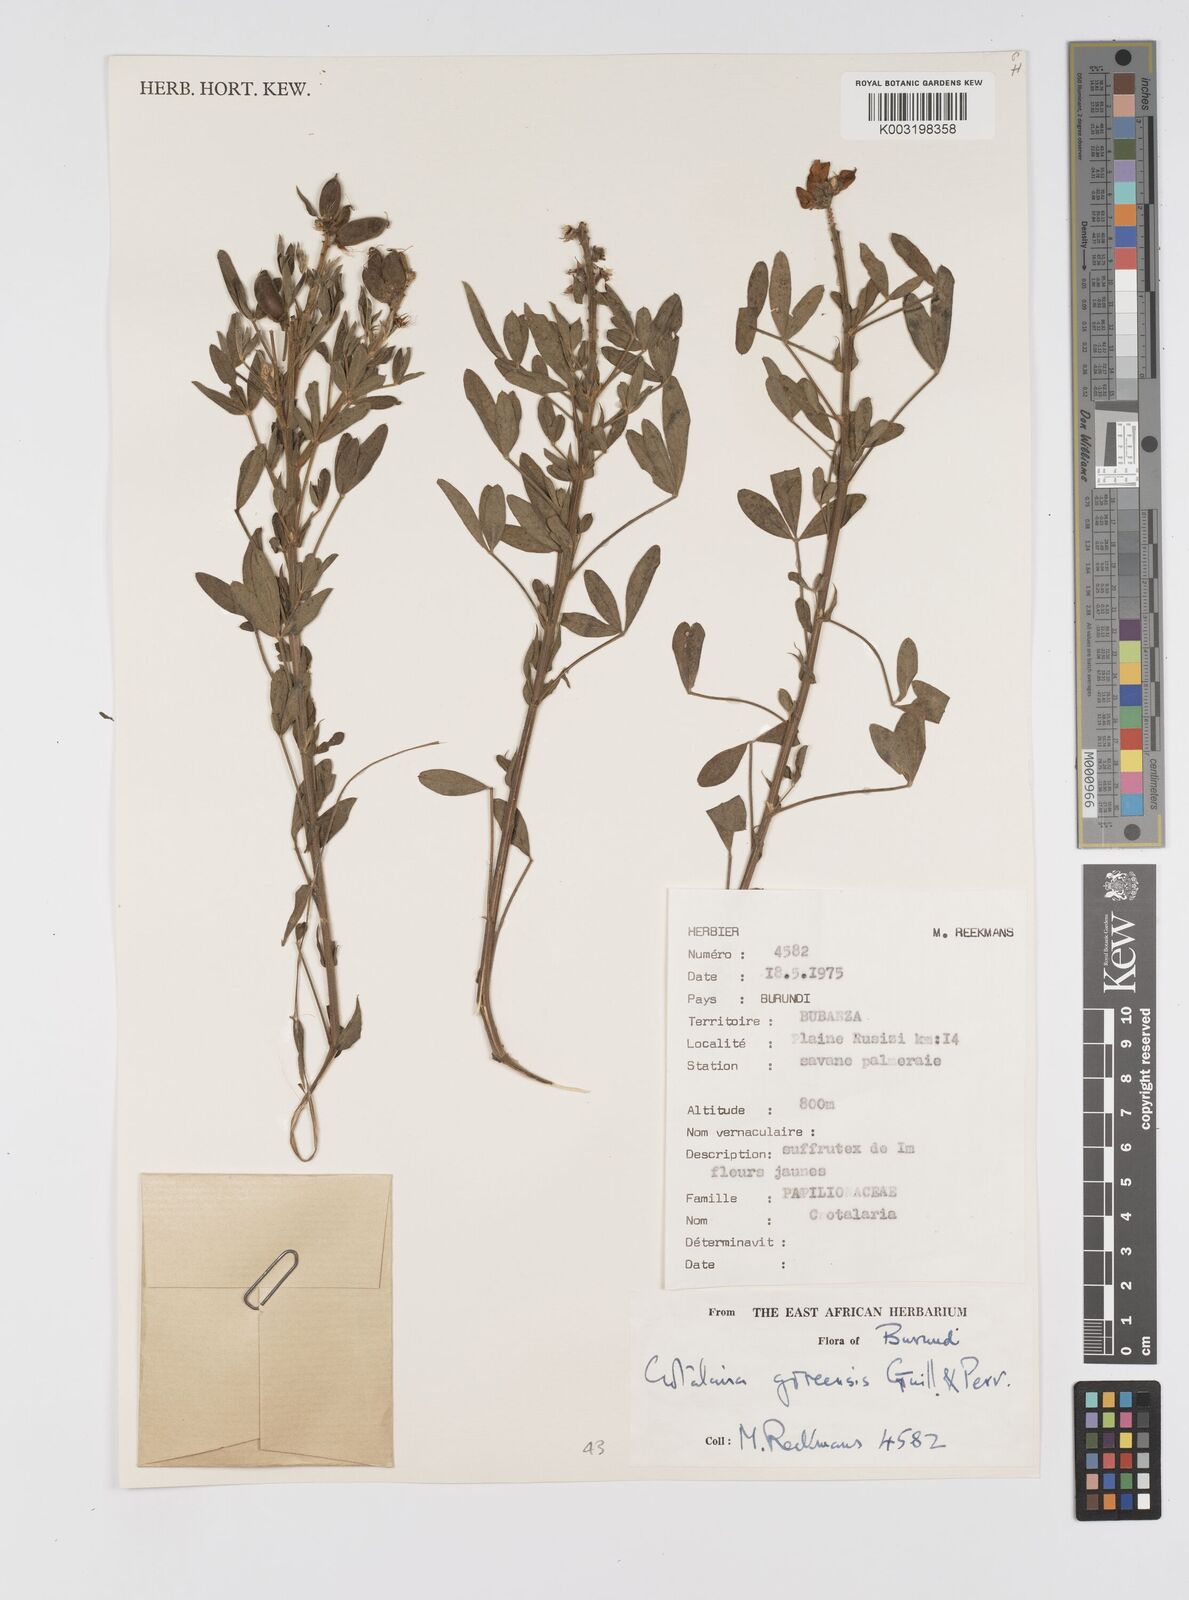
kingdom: Plantae
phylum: Tracheophyta
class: Magnoliopsida
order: Fabales
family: Fabaceae
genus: Crotalaria
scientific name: Crotalaria goreensis
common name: Gambia-pea
